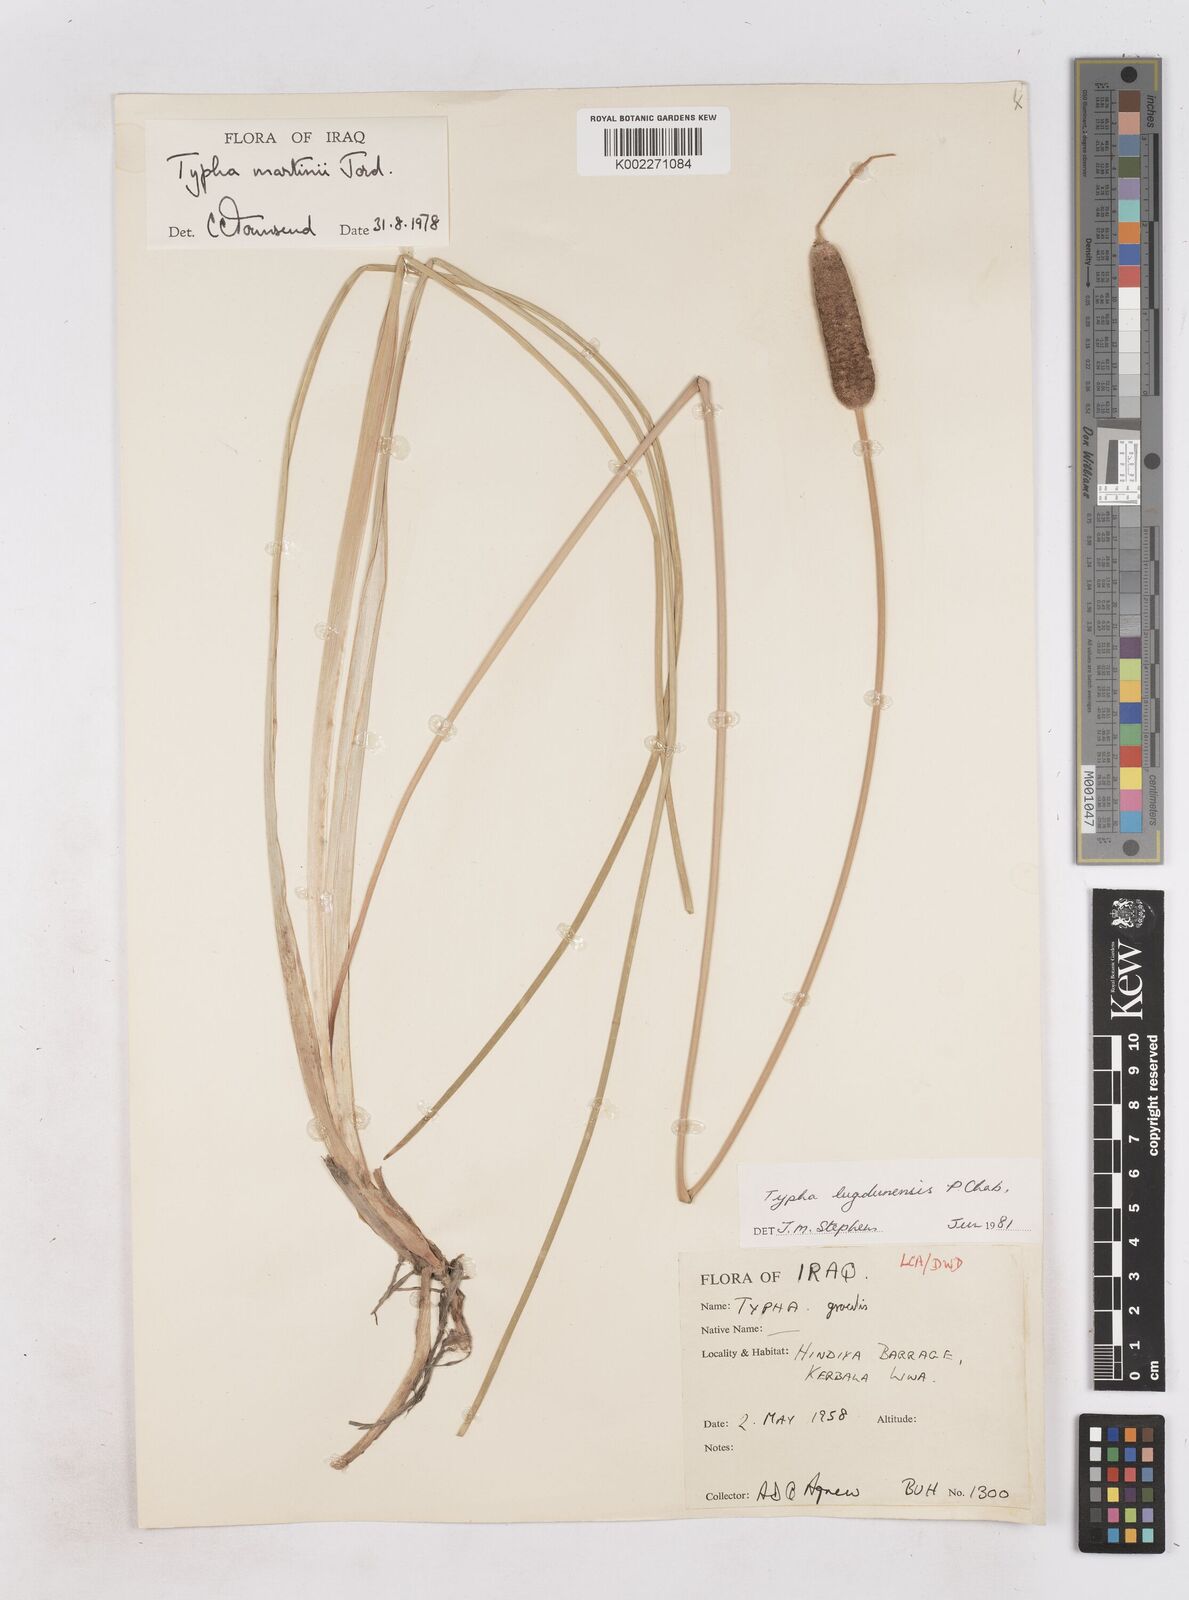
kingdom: Plantae
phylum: Tracheophyta
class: Liliopsida
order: Poales
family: Typhaceae
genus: Typha
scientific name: Typha lugdunensis
